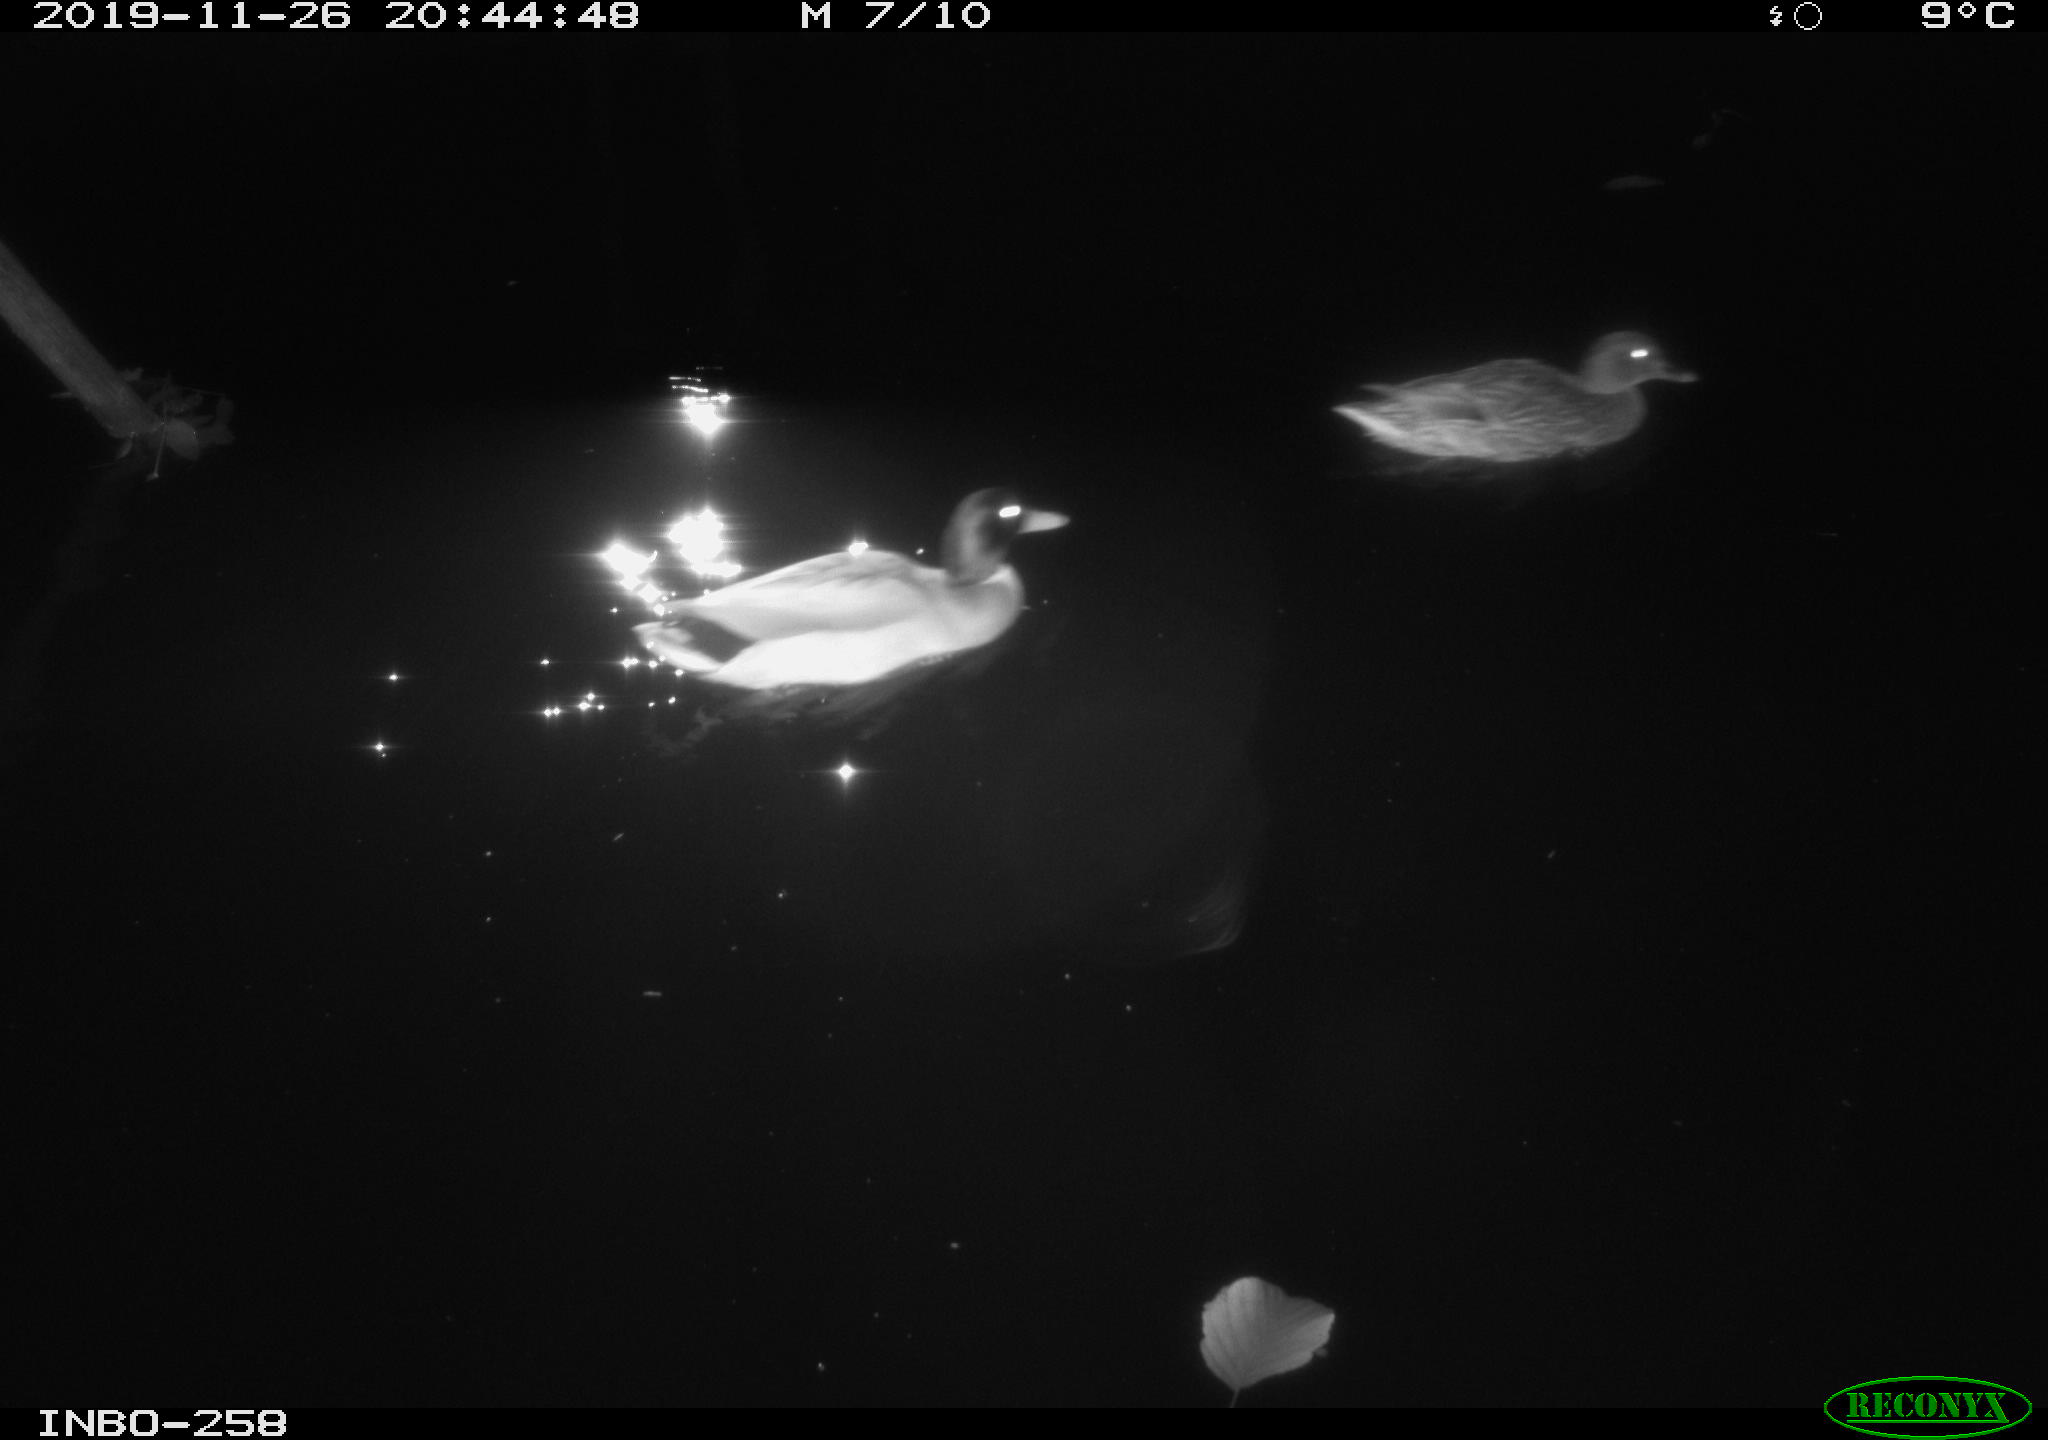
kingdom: Animalia
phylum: Chordata
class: Aves
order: Anseriformes
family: Anatidae
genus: Anas
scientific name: Anas platyrhynchos
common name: Mallard
